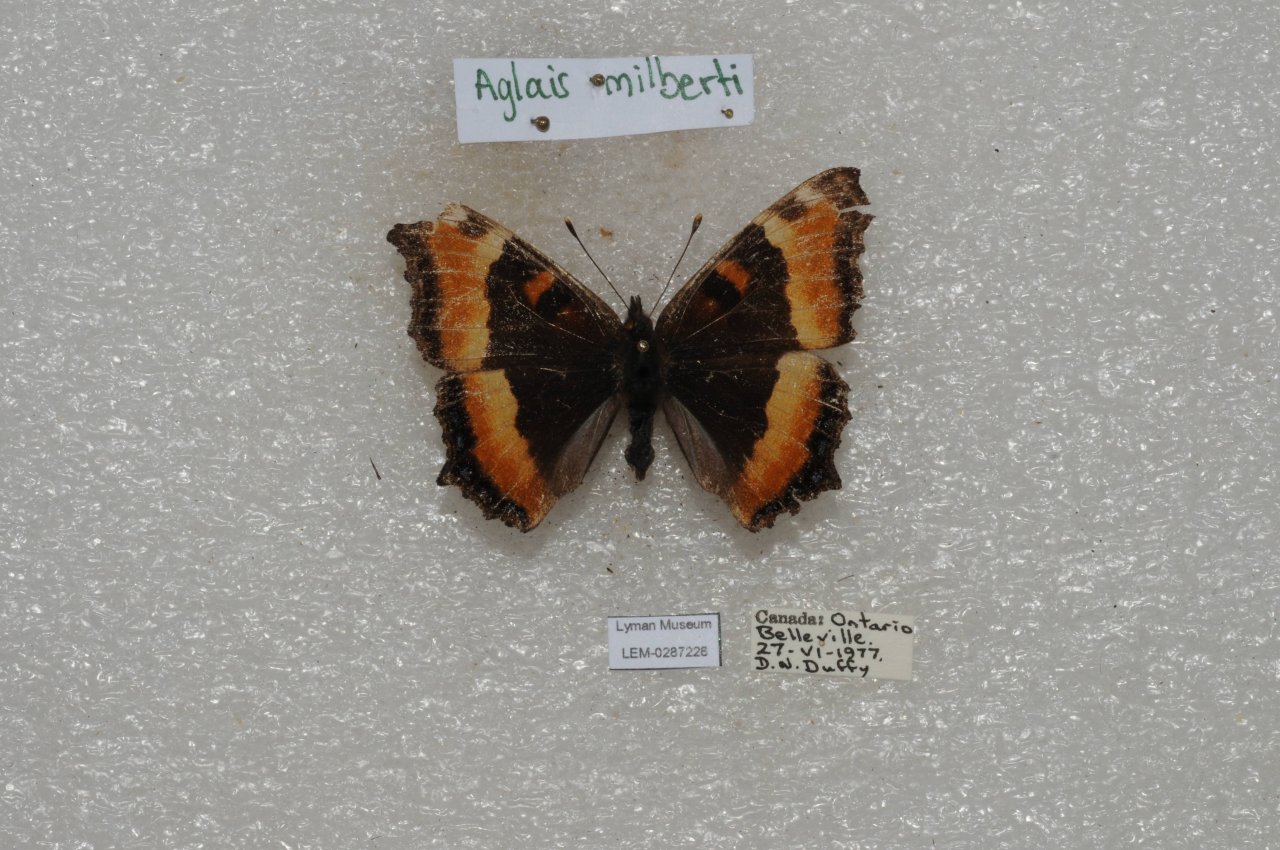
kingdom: Animalia
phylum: Arthropoda
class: Insecta
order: Lepidoptera
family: Nymphalidae
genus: Aglais
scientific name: Aglais milberti
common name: Milbert's Tortoiseshell
